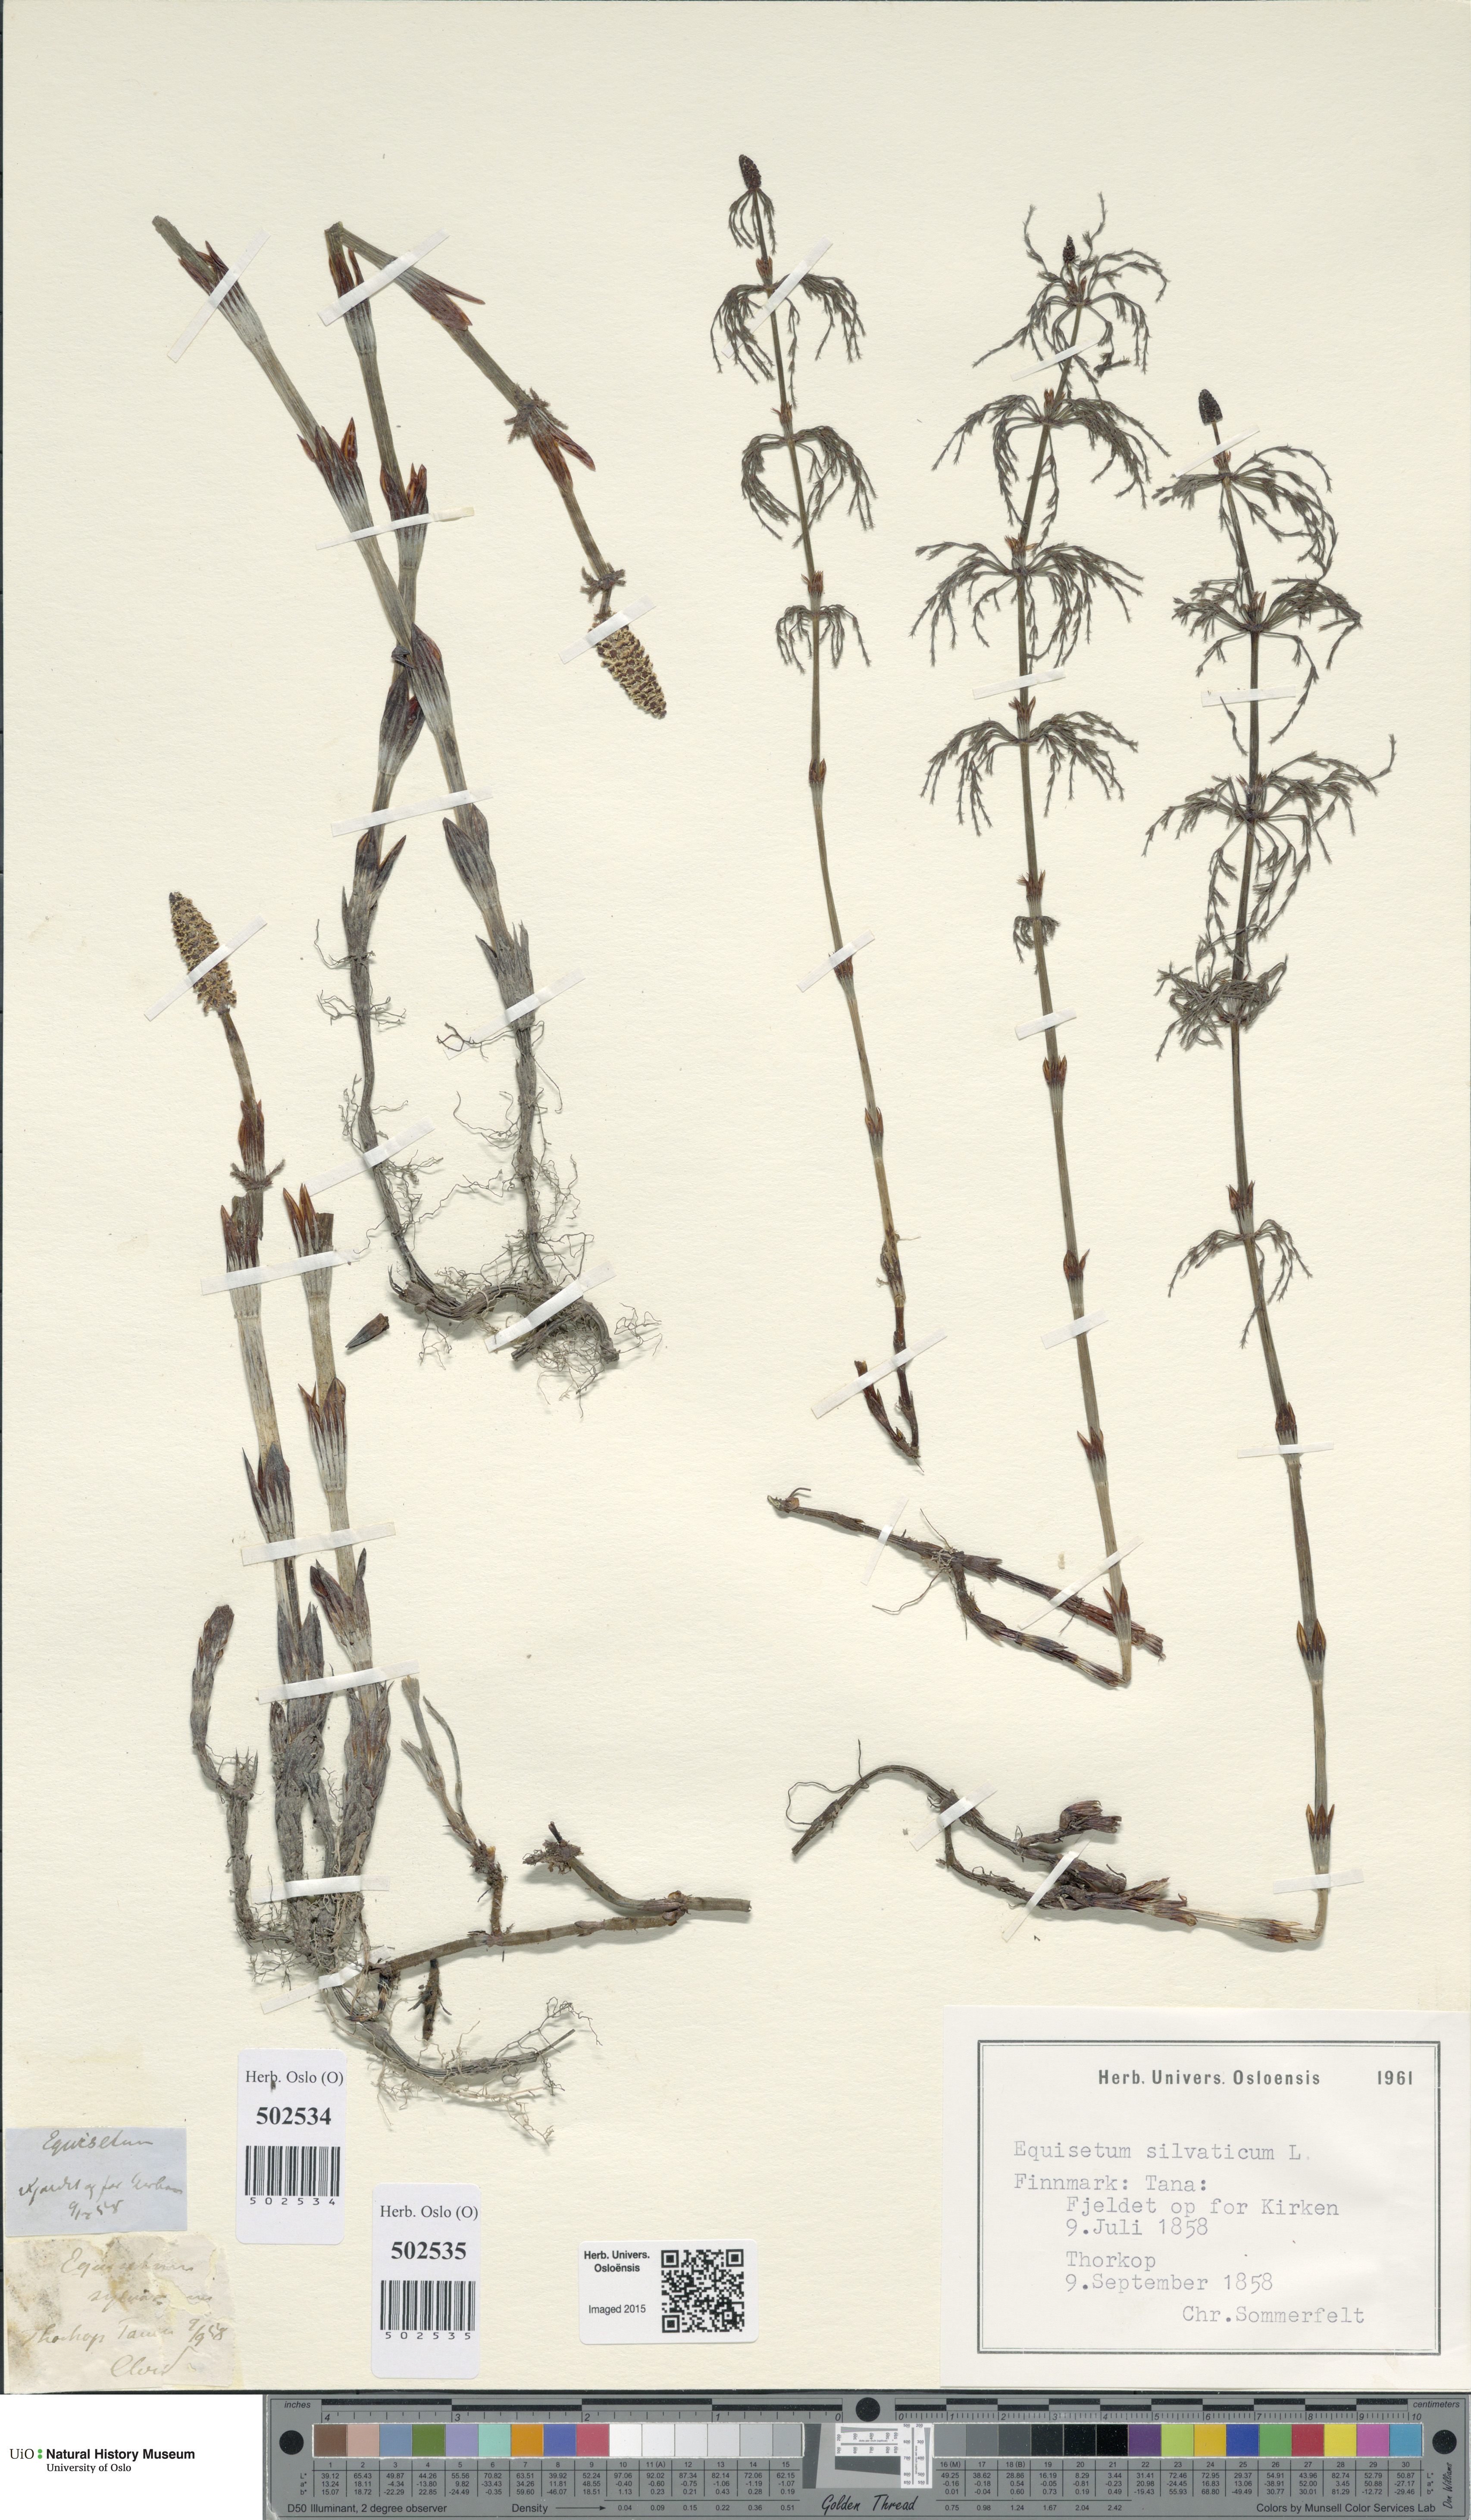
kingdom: Plantae
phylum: Tracheophyta
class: Polypodiopsida
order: Equisetales
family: Equisetaceae
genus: Equisetum
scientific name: Equisetum sylvaticum
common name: Wood horsetail
